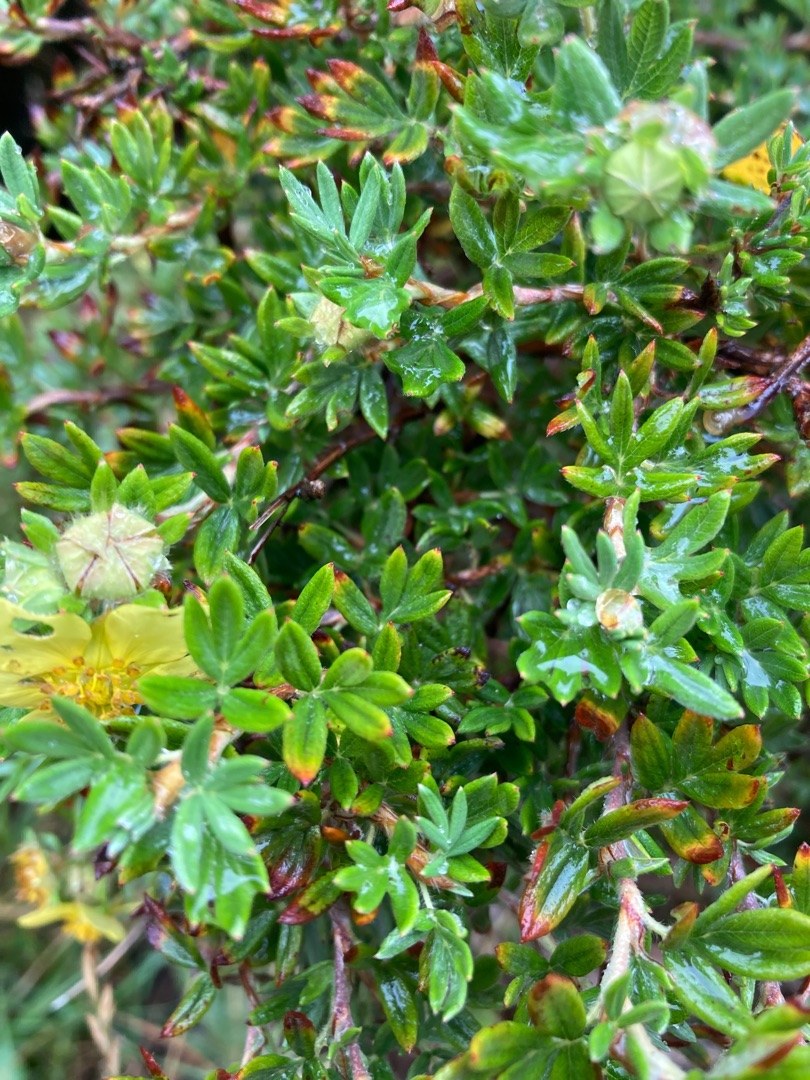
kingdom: Plantae
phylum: Tracheophyta
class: Magnoliopsida
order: Rosales
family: Rosaceae
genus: Dasiphora
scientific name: Dasiphora fruticosa
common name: Buskpotentil
